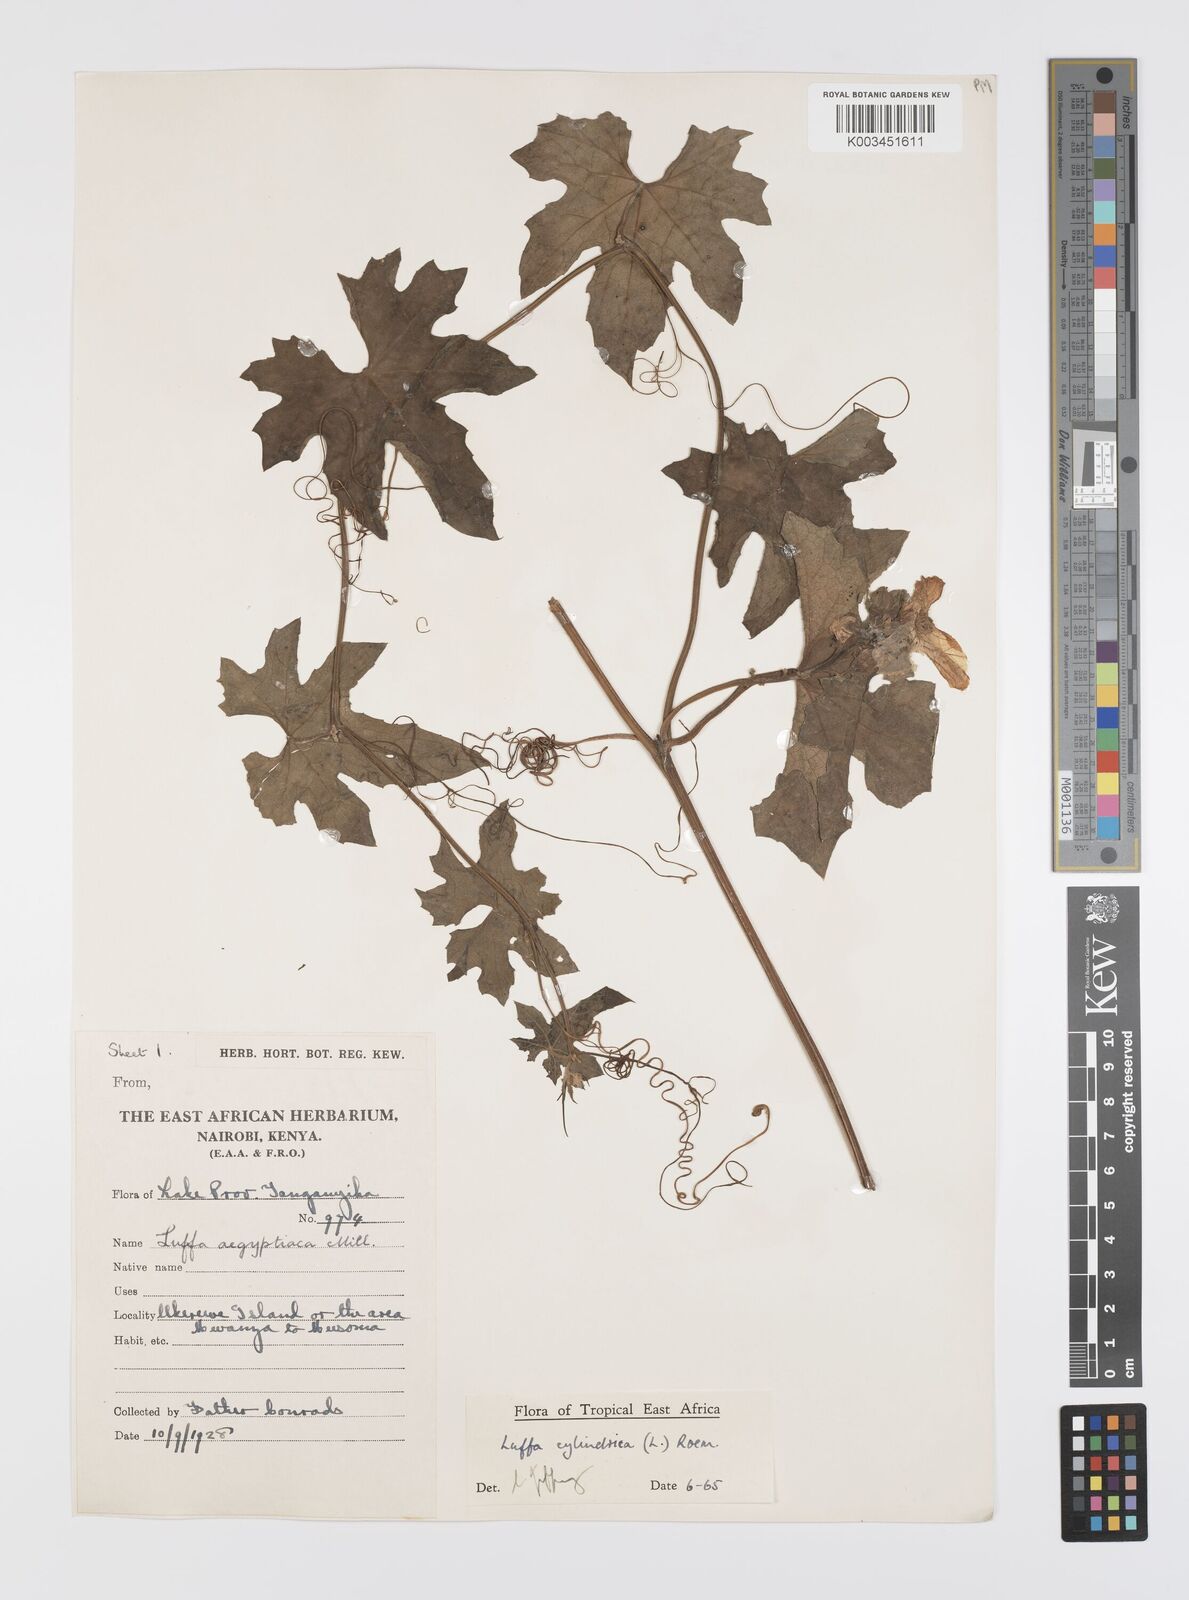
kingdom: Plantae
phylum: Tracheophyta
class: Magnoliopsida
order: Cucurbitales
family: Cucurbitaceae
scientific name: Cucurbitaceae
